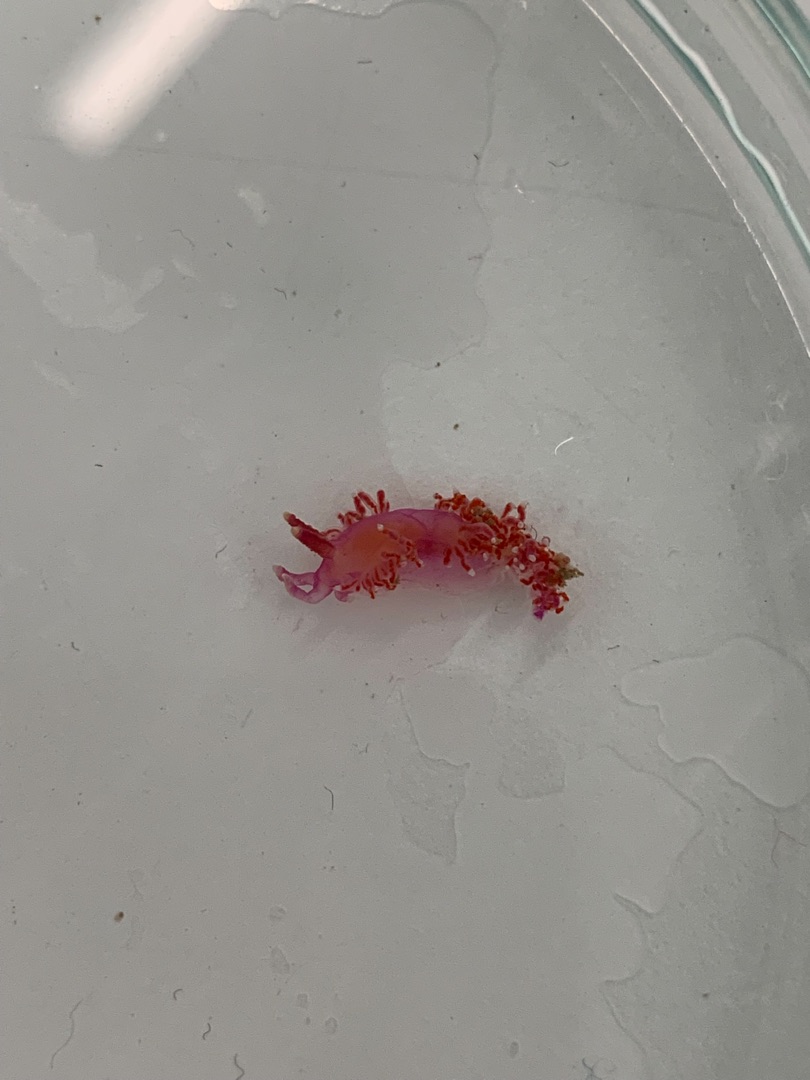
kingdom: Animalia
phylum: Mollusca
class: Gastropoda
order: Nudibranchia
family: Flabellinidae
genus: Edmundsella
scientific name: Edmundsella pedata
